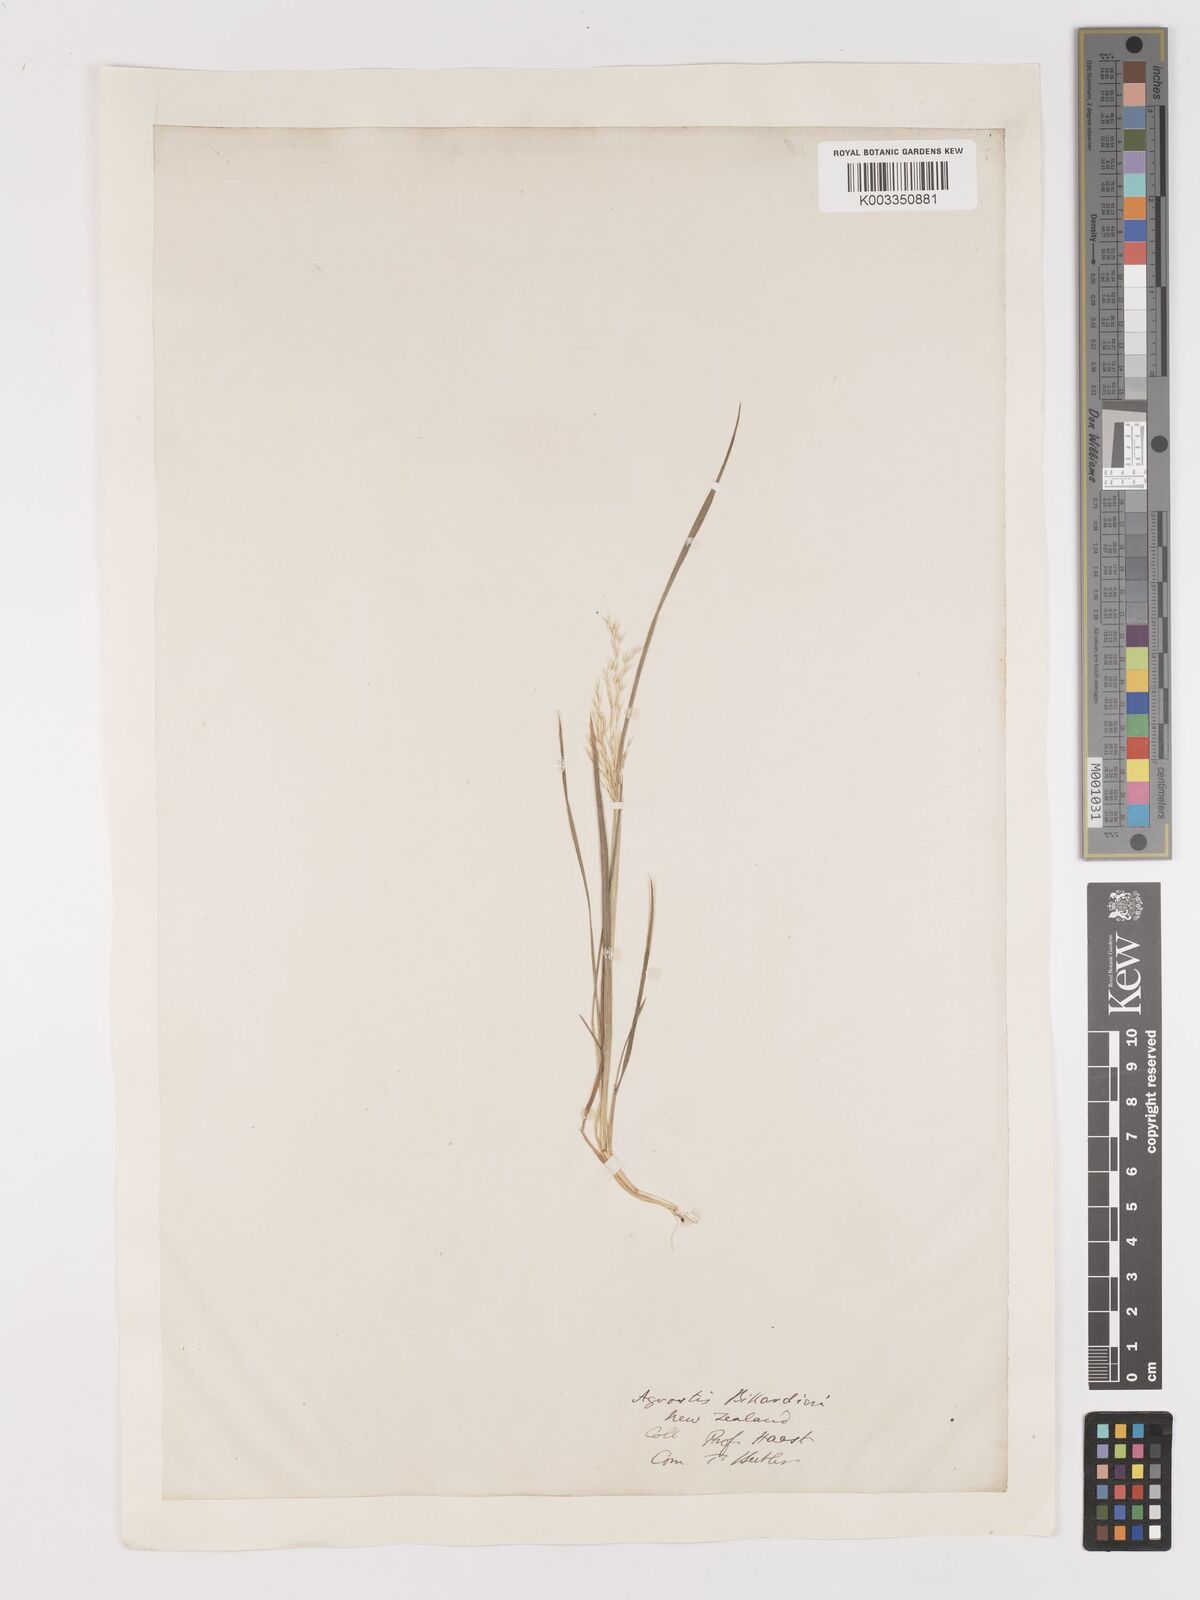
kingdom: Plantae
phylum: Tracheophyta
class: Liliopsida
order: Poales
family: Poaceae
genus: Lachnagrostis
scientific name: Lachnagrostis billardierei
